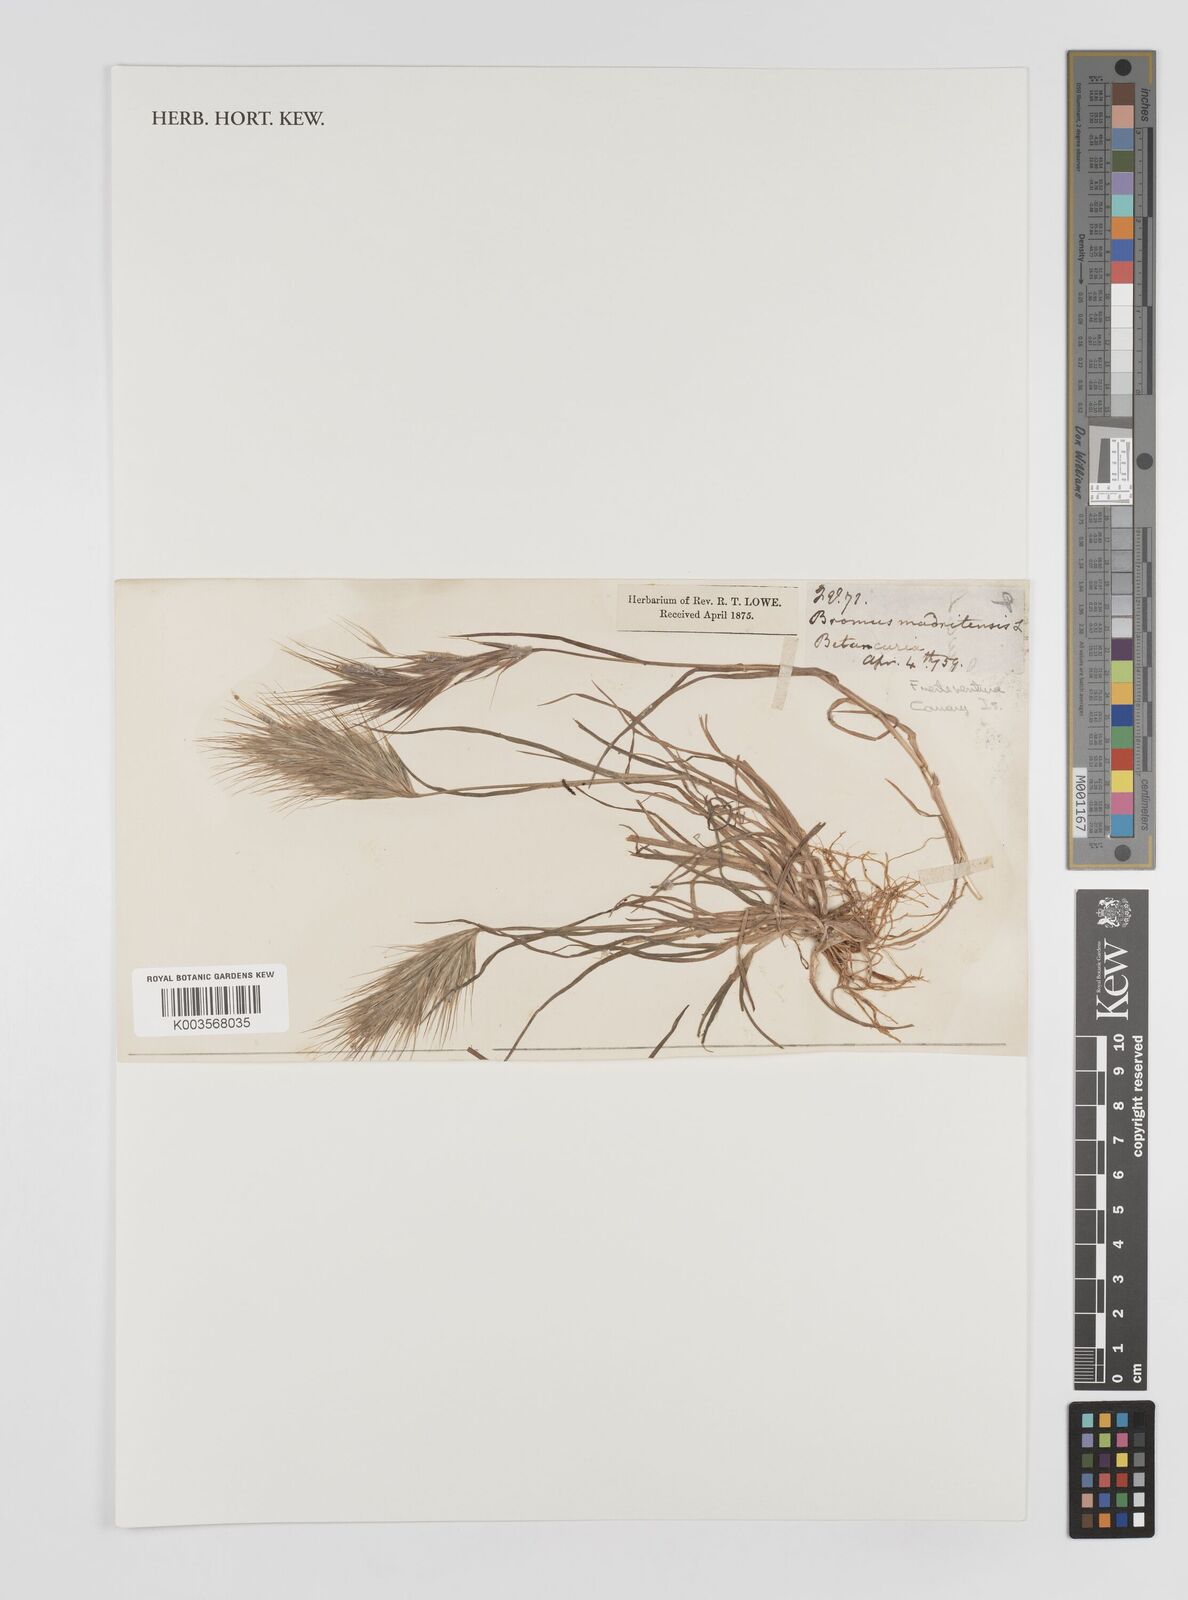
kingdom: Plantae
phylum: Tracheophyta
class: Liliopsida
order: Poales
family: Poaceae
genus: Bromus
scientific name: Bromus fasciculatus
